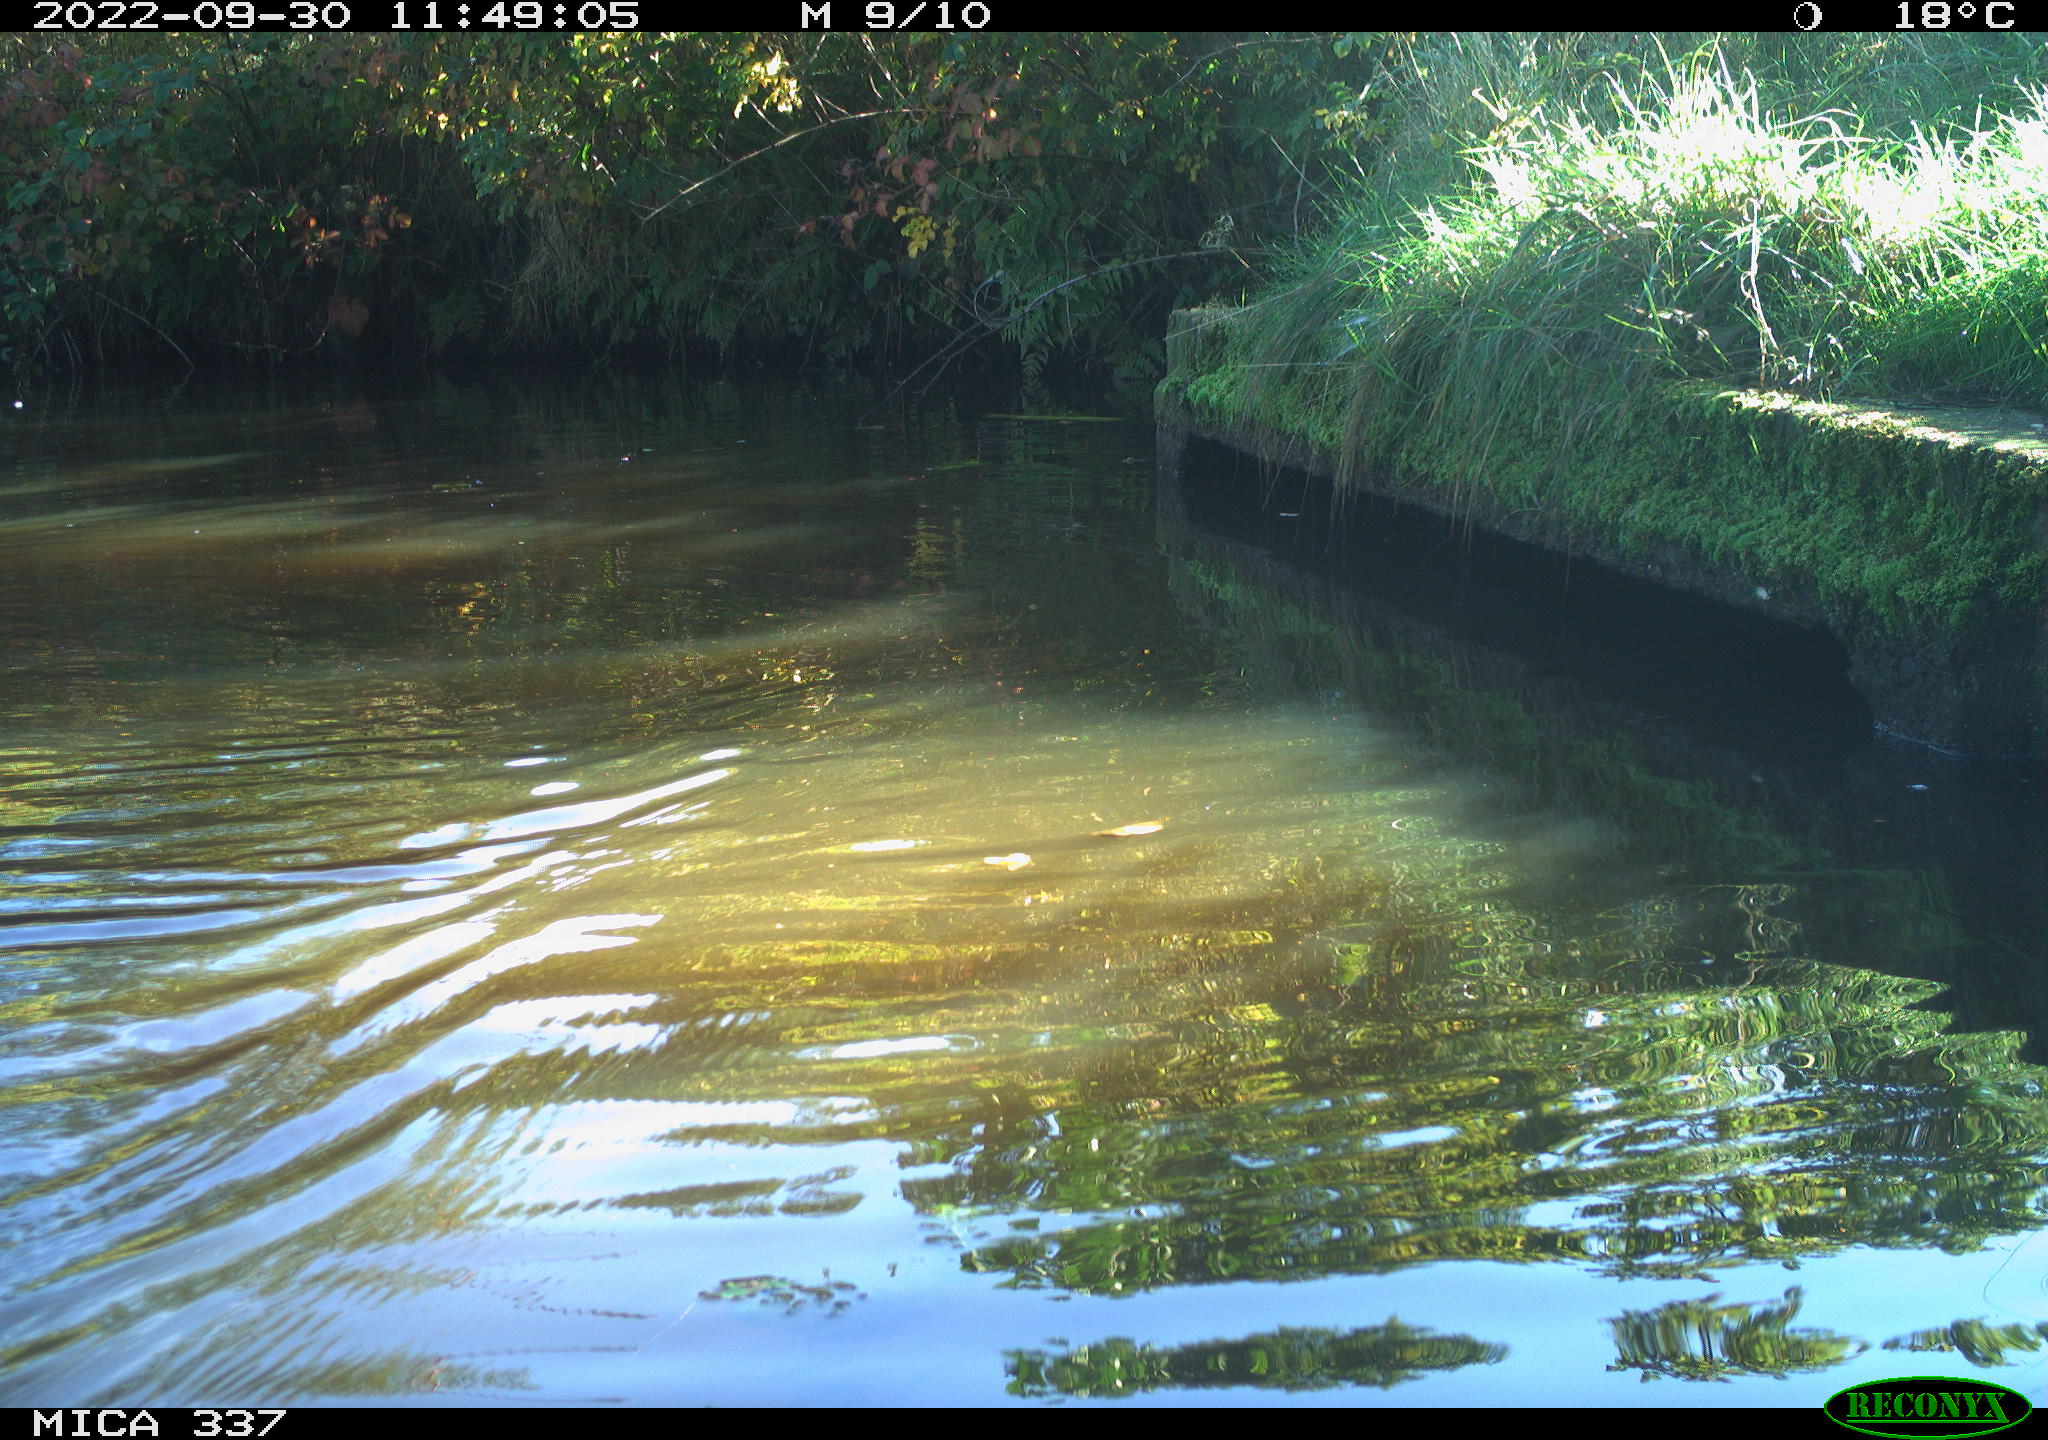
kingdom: Animalia
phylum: Chordata
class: Aves
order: Anseriformes
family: Anatidae
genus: Anas
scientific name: Anas platyrhynchos
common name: Mallard
